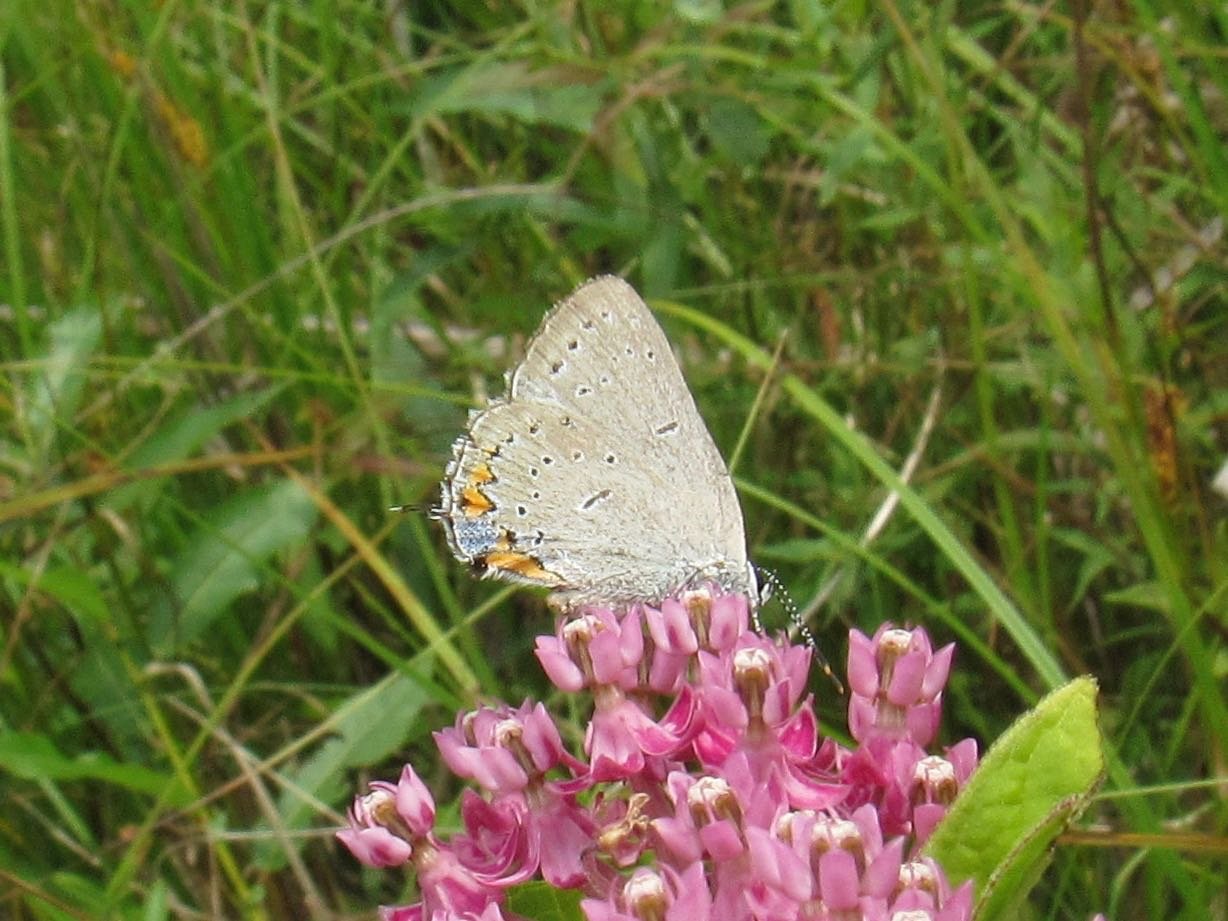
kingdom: Animalia
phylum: Arthropoda
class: Insecta
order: Lepidoptera
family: Lycaenidae
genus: Strymon
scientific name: Strymon acadica
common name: Acadian Hairstreak
